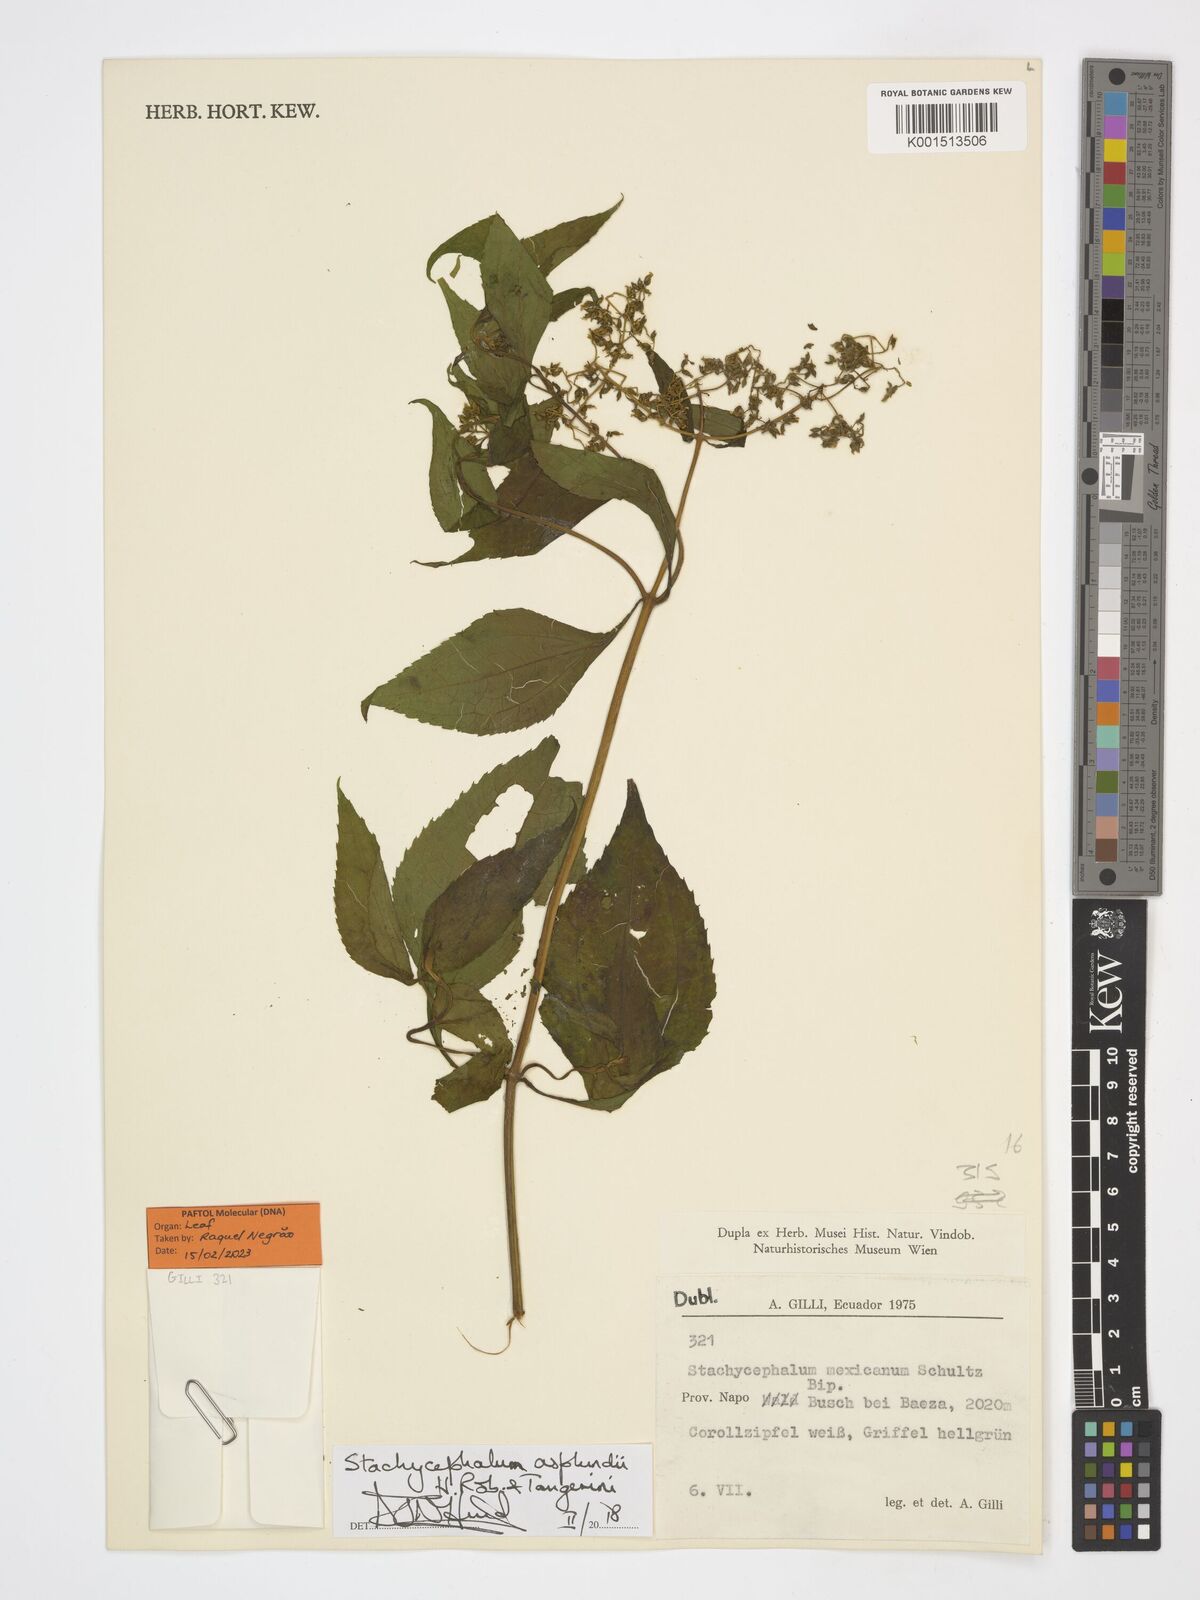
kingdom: Plantae
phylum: Tracheophyta
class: Magnoliopsida
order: Asterales
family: Asteraceae
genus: Stachycephalum
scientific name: Stachycephalum asplundii
